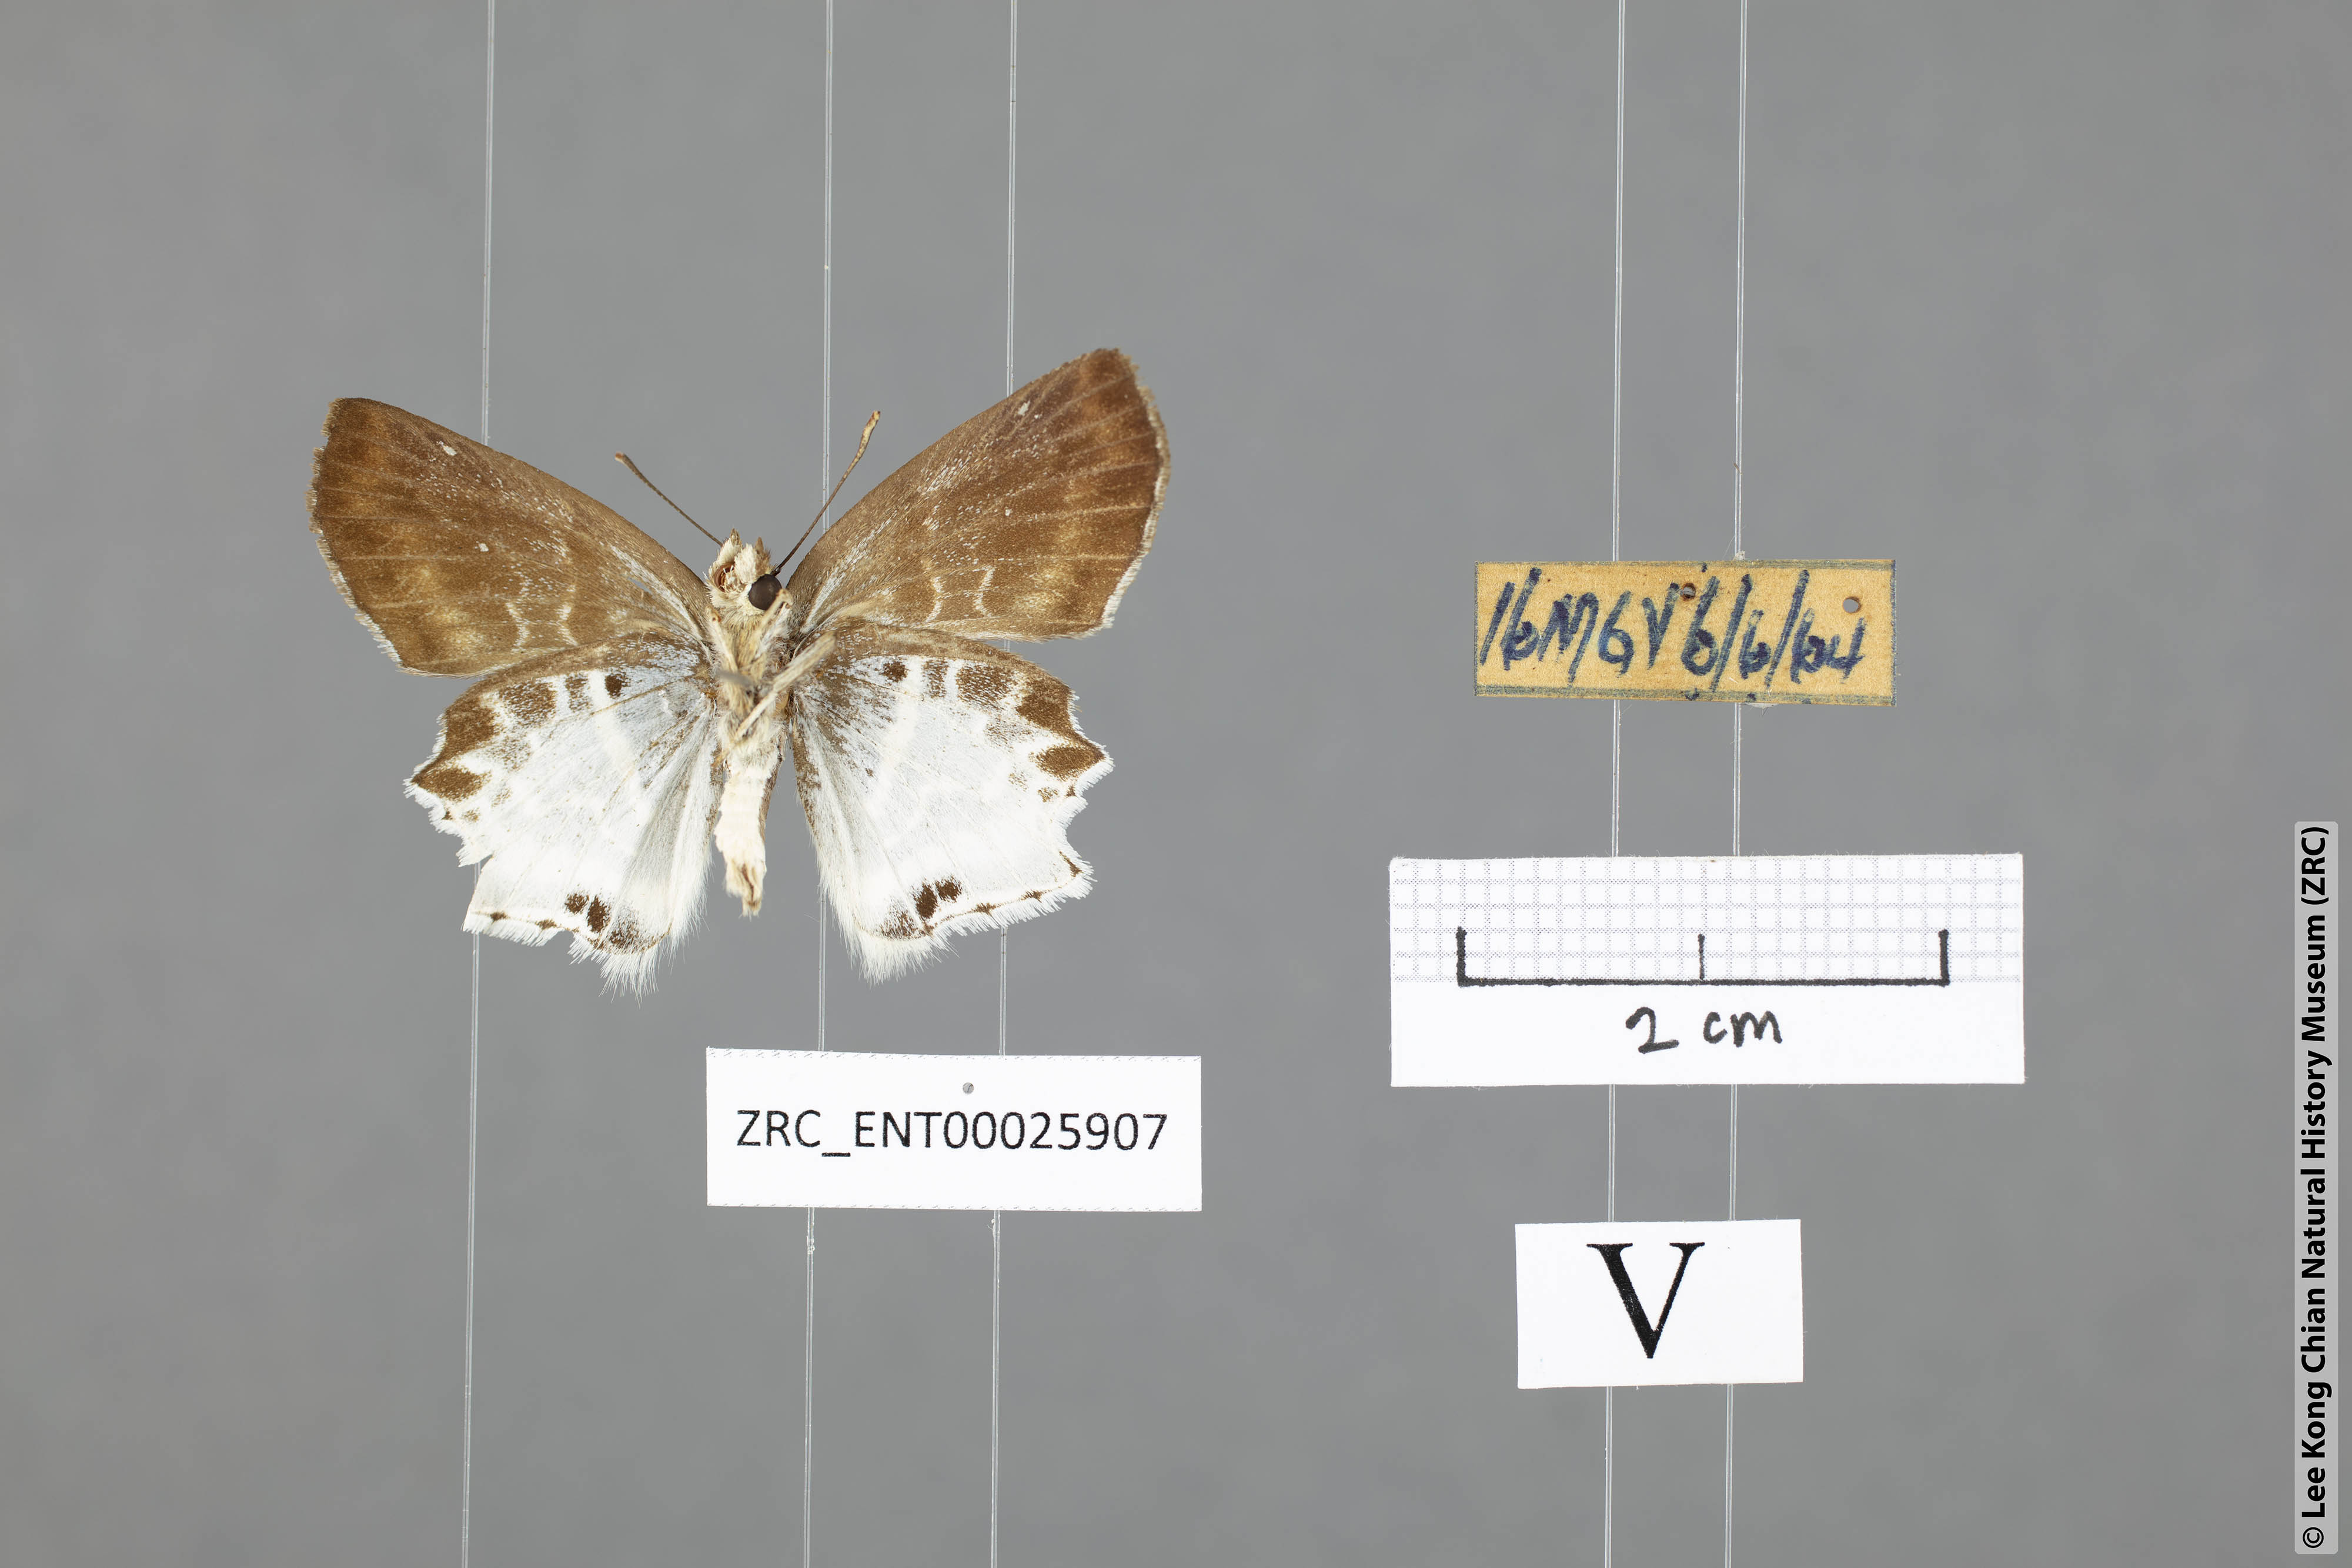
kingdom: Animalia
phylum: Arthropoda
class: Insecta
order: Lepidoptera
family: Hesperiidae
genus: Odontoptilum
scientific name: Odontoptilum pygela
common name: Banded angle
